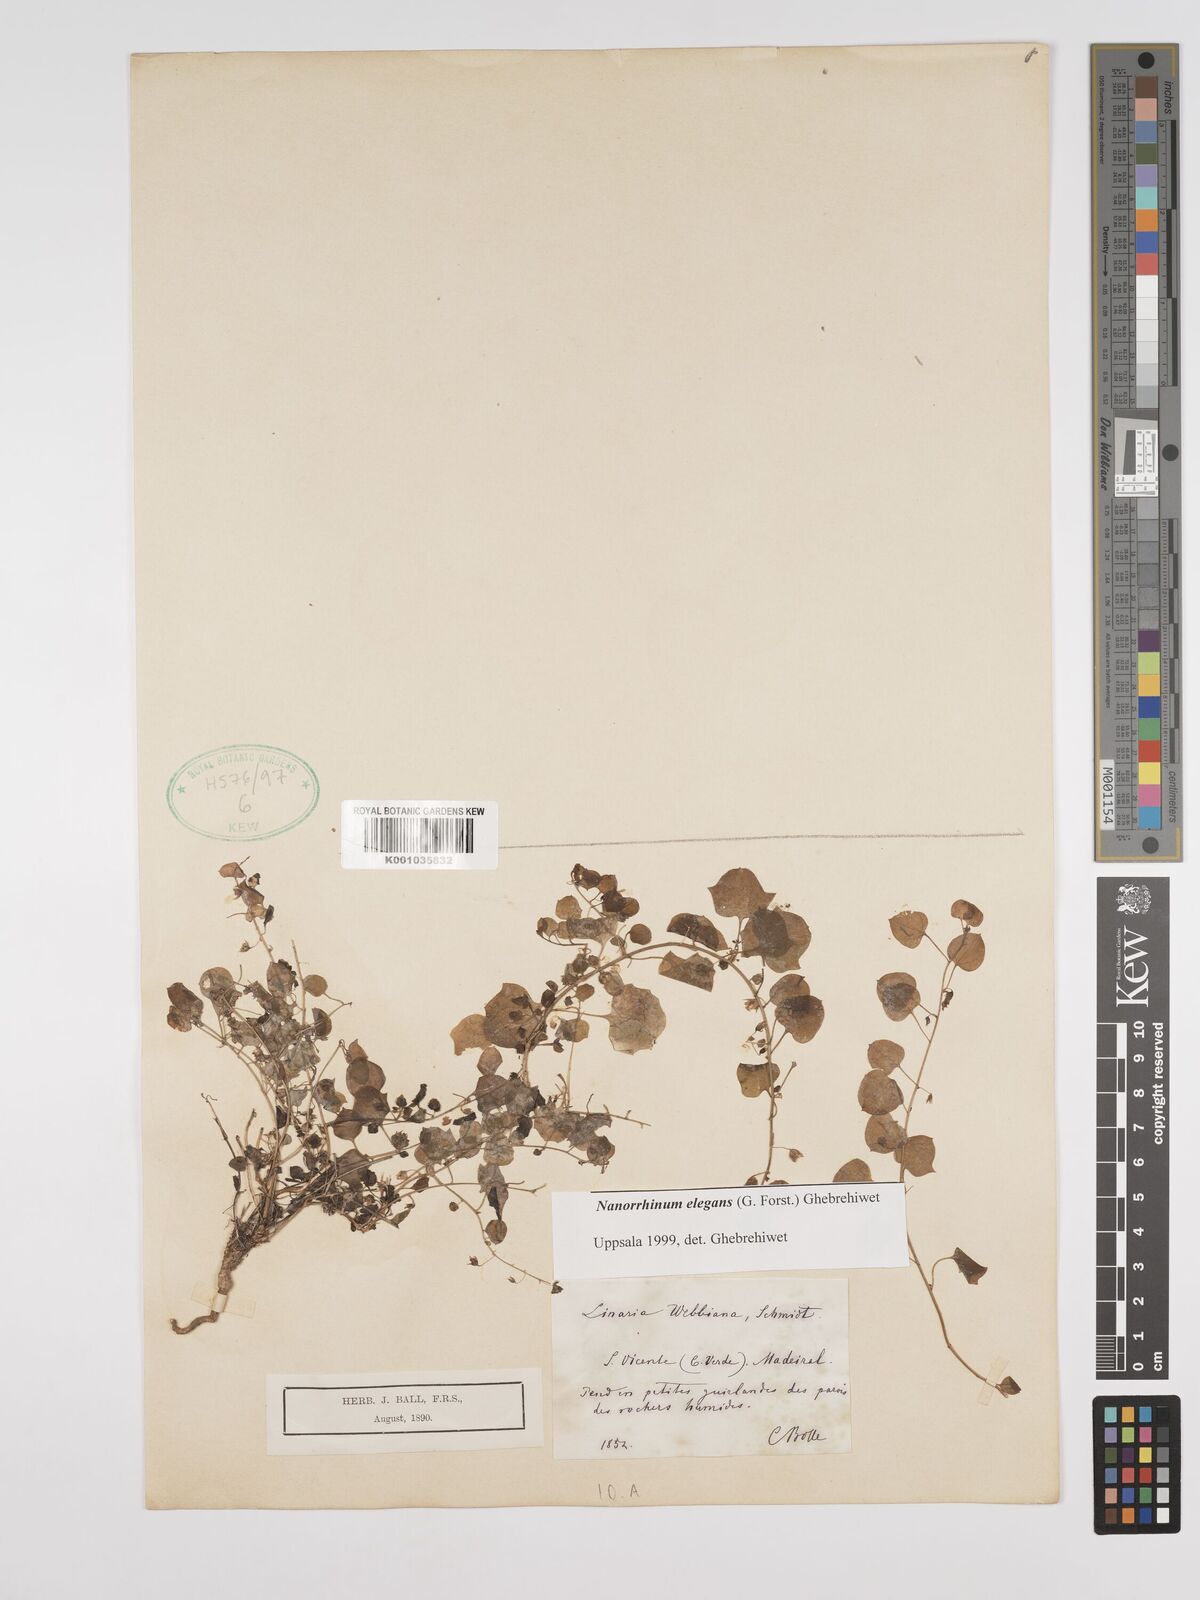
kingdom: Plantae
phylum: Tracheophyta
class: Magnoliopsida
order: Lamiales
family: Plantaginaceae
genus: Nanorrhinum
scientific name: Nanorrhinum elegans
